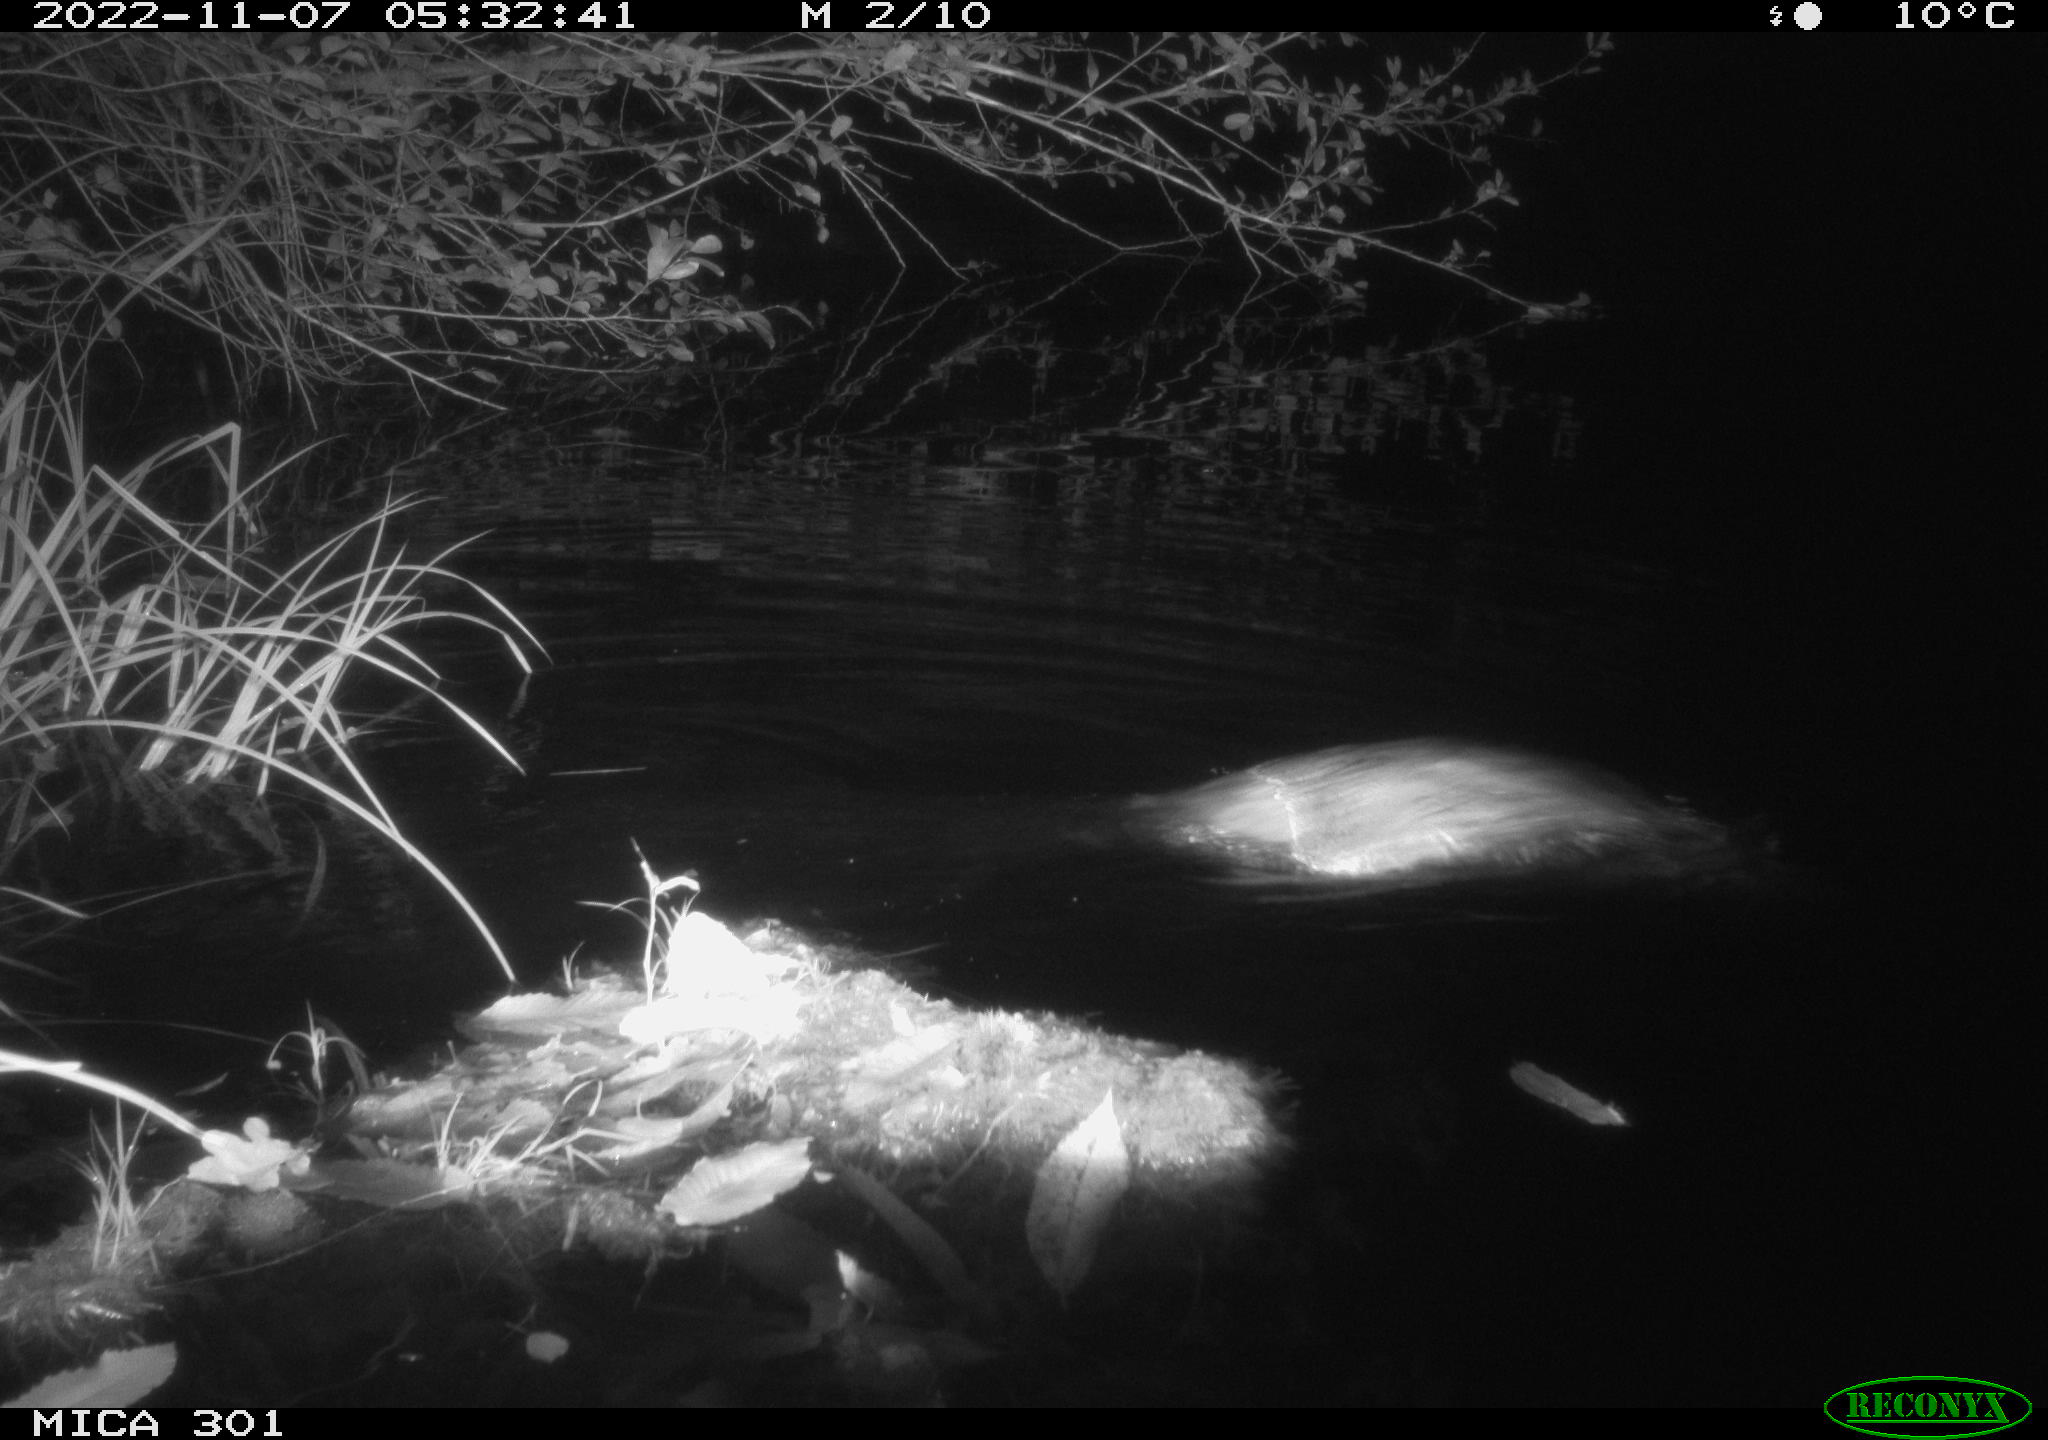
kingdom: Animalia
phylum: Chordata
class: Mammalia
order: Rodentia
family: Castoridae
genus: Castor
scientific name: Castor fiber
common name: Eurasian beaver
